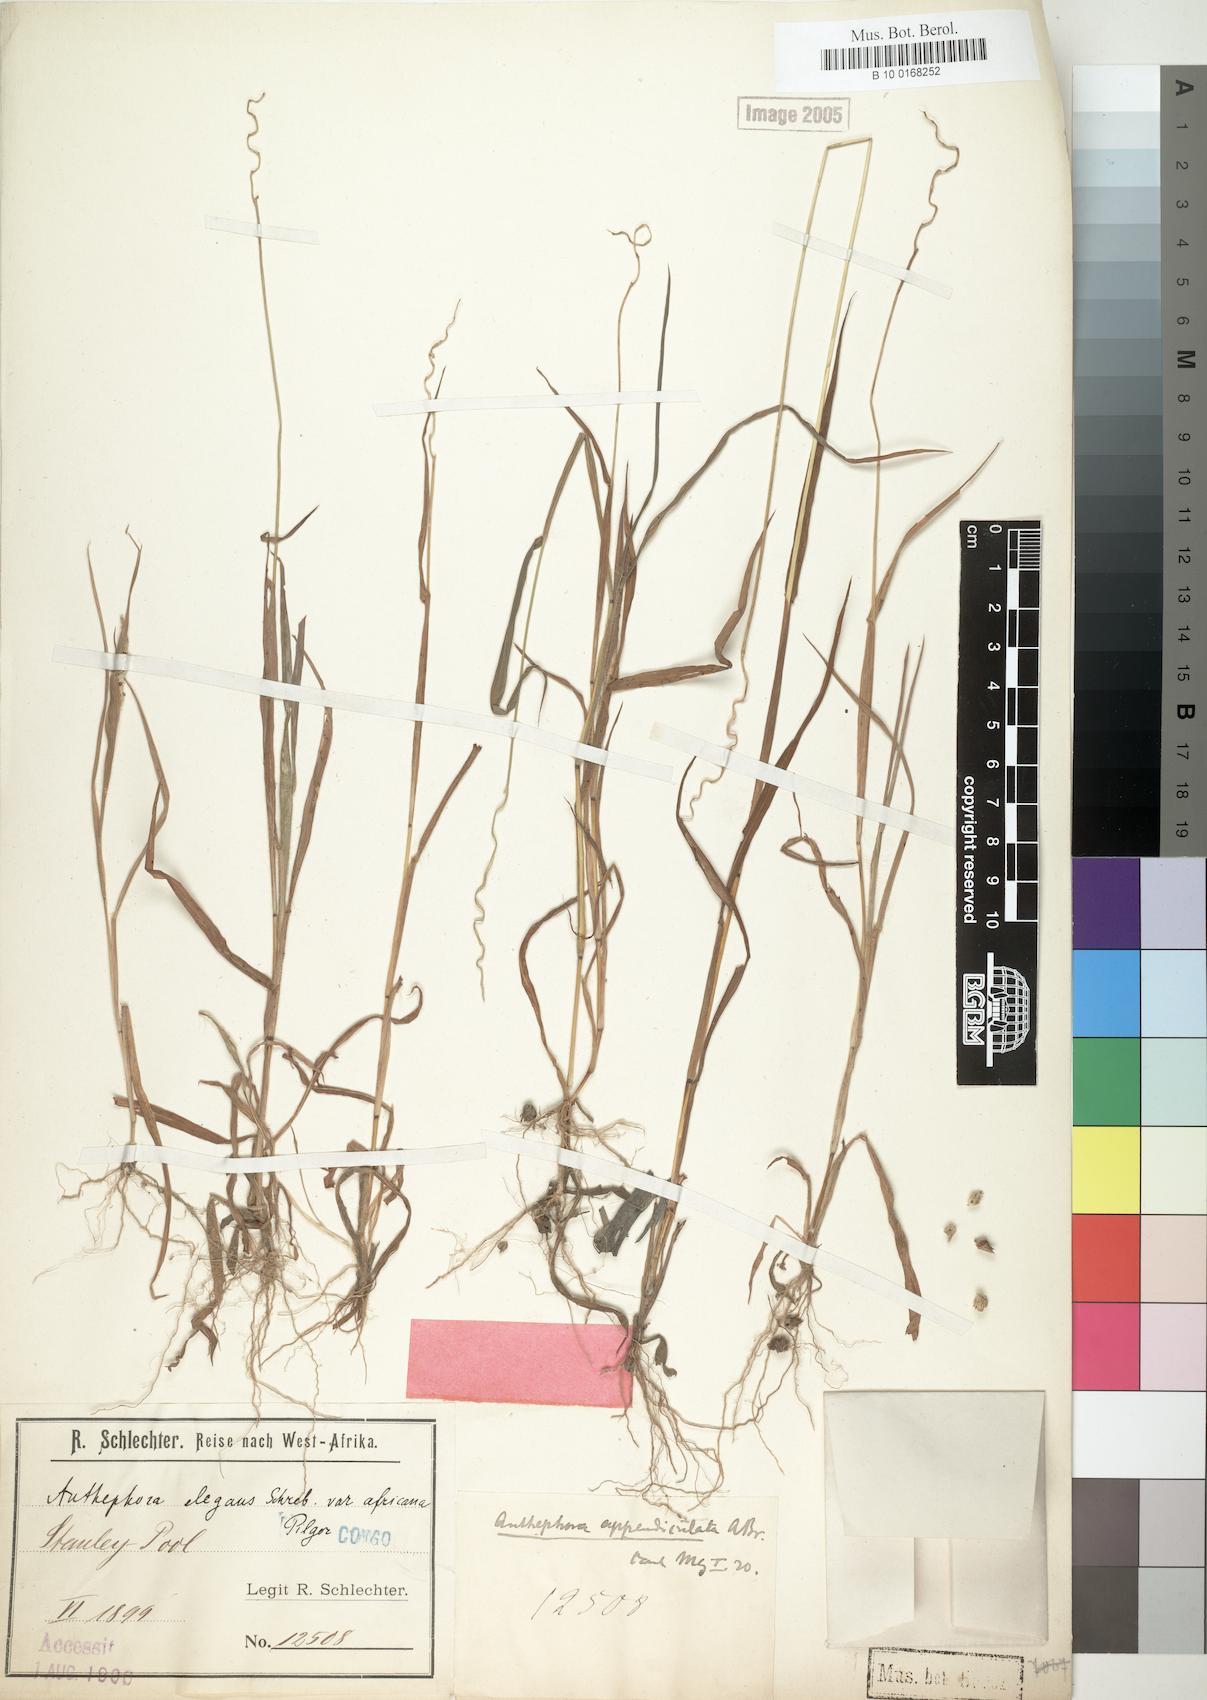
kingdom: Plantae
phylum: Tracheophyta
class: Liliopsida
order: Poales
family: Poaceae
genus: Anthephora
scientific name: Anthephora cristata
